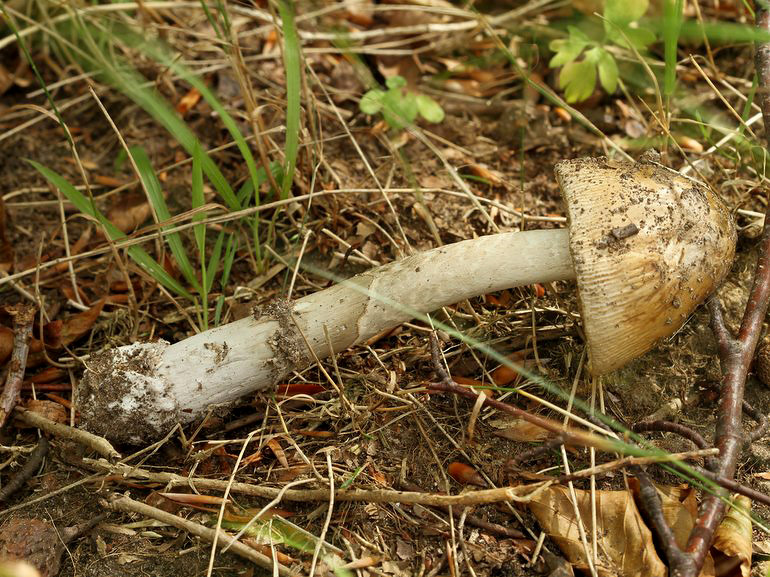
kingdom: Fungi
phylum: Basidiomycota
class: Agaricomycetes
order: Agaricales
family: Amanitaceae
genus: Amanita
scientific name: Amanita ceciliae
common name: stor kam-fluesvamp
